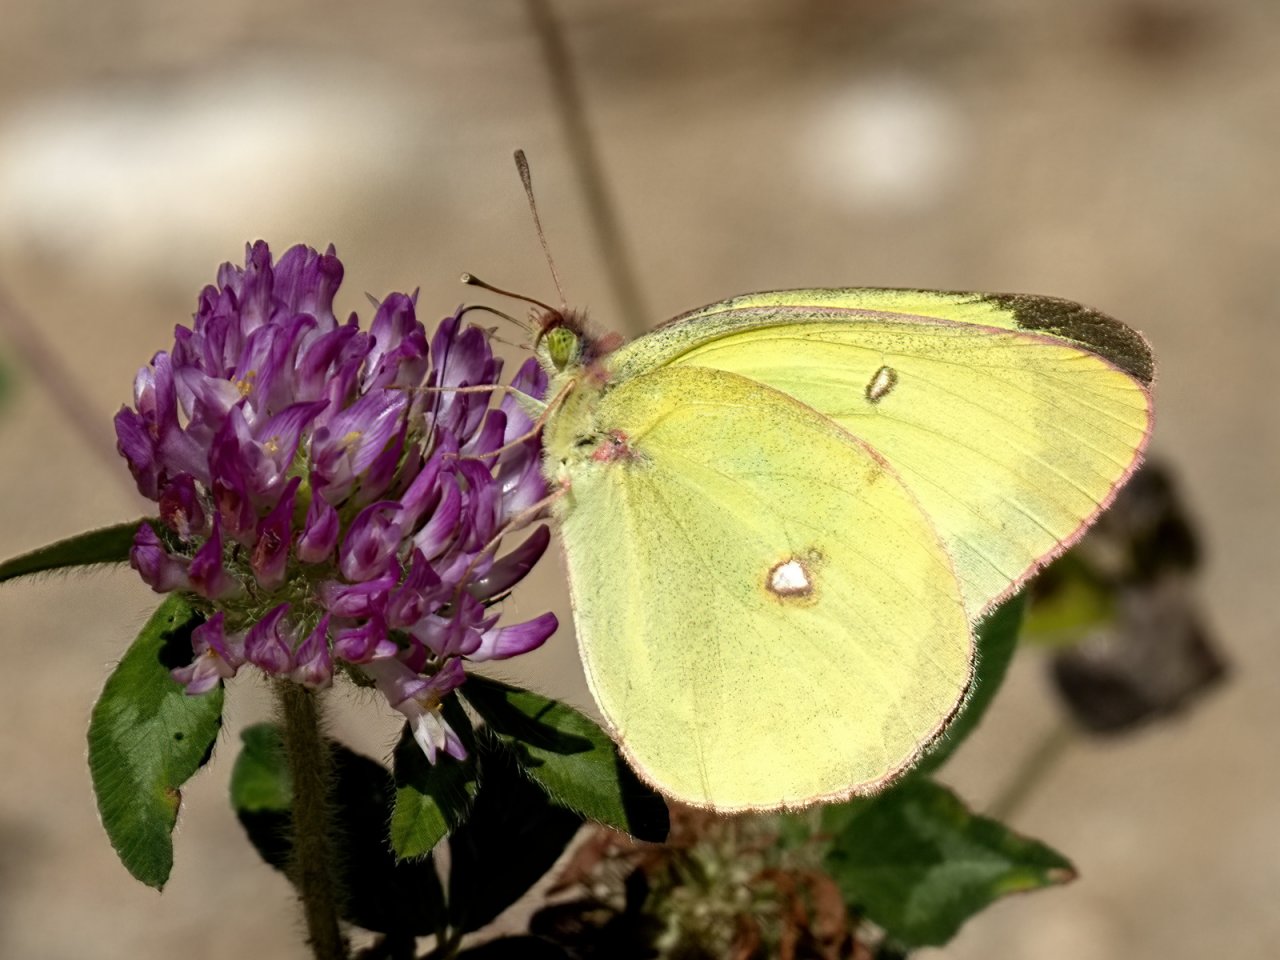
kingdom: Animalia
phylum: Arthropoda
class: Insecta
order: Lepidoptera
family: Pieridae
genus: Colias
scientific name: Colias interior
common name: Pink-edged Sulphur
